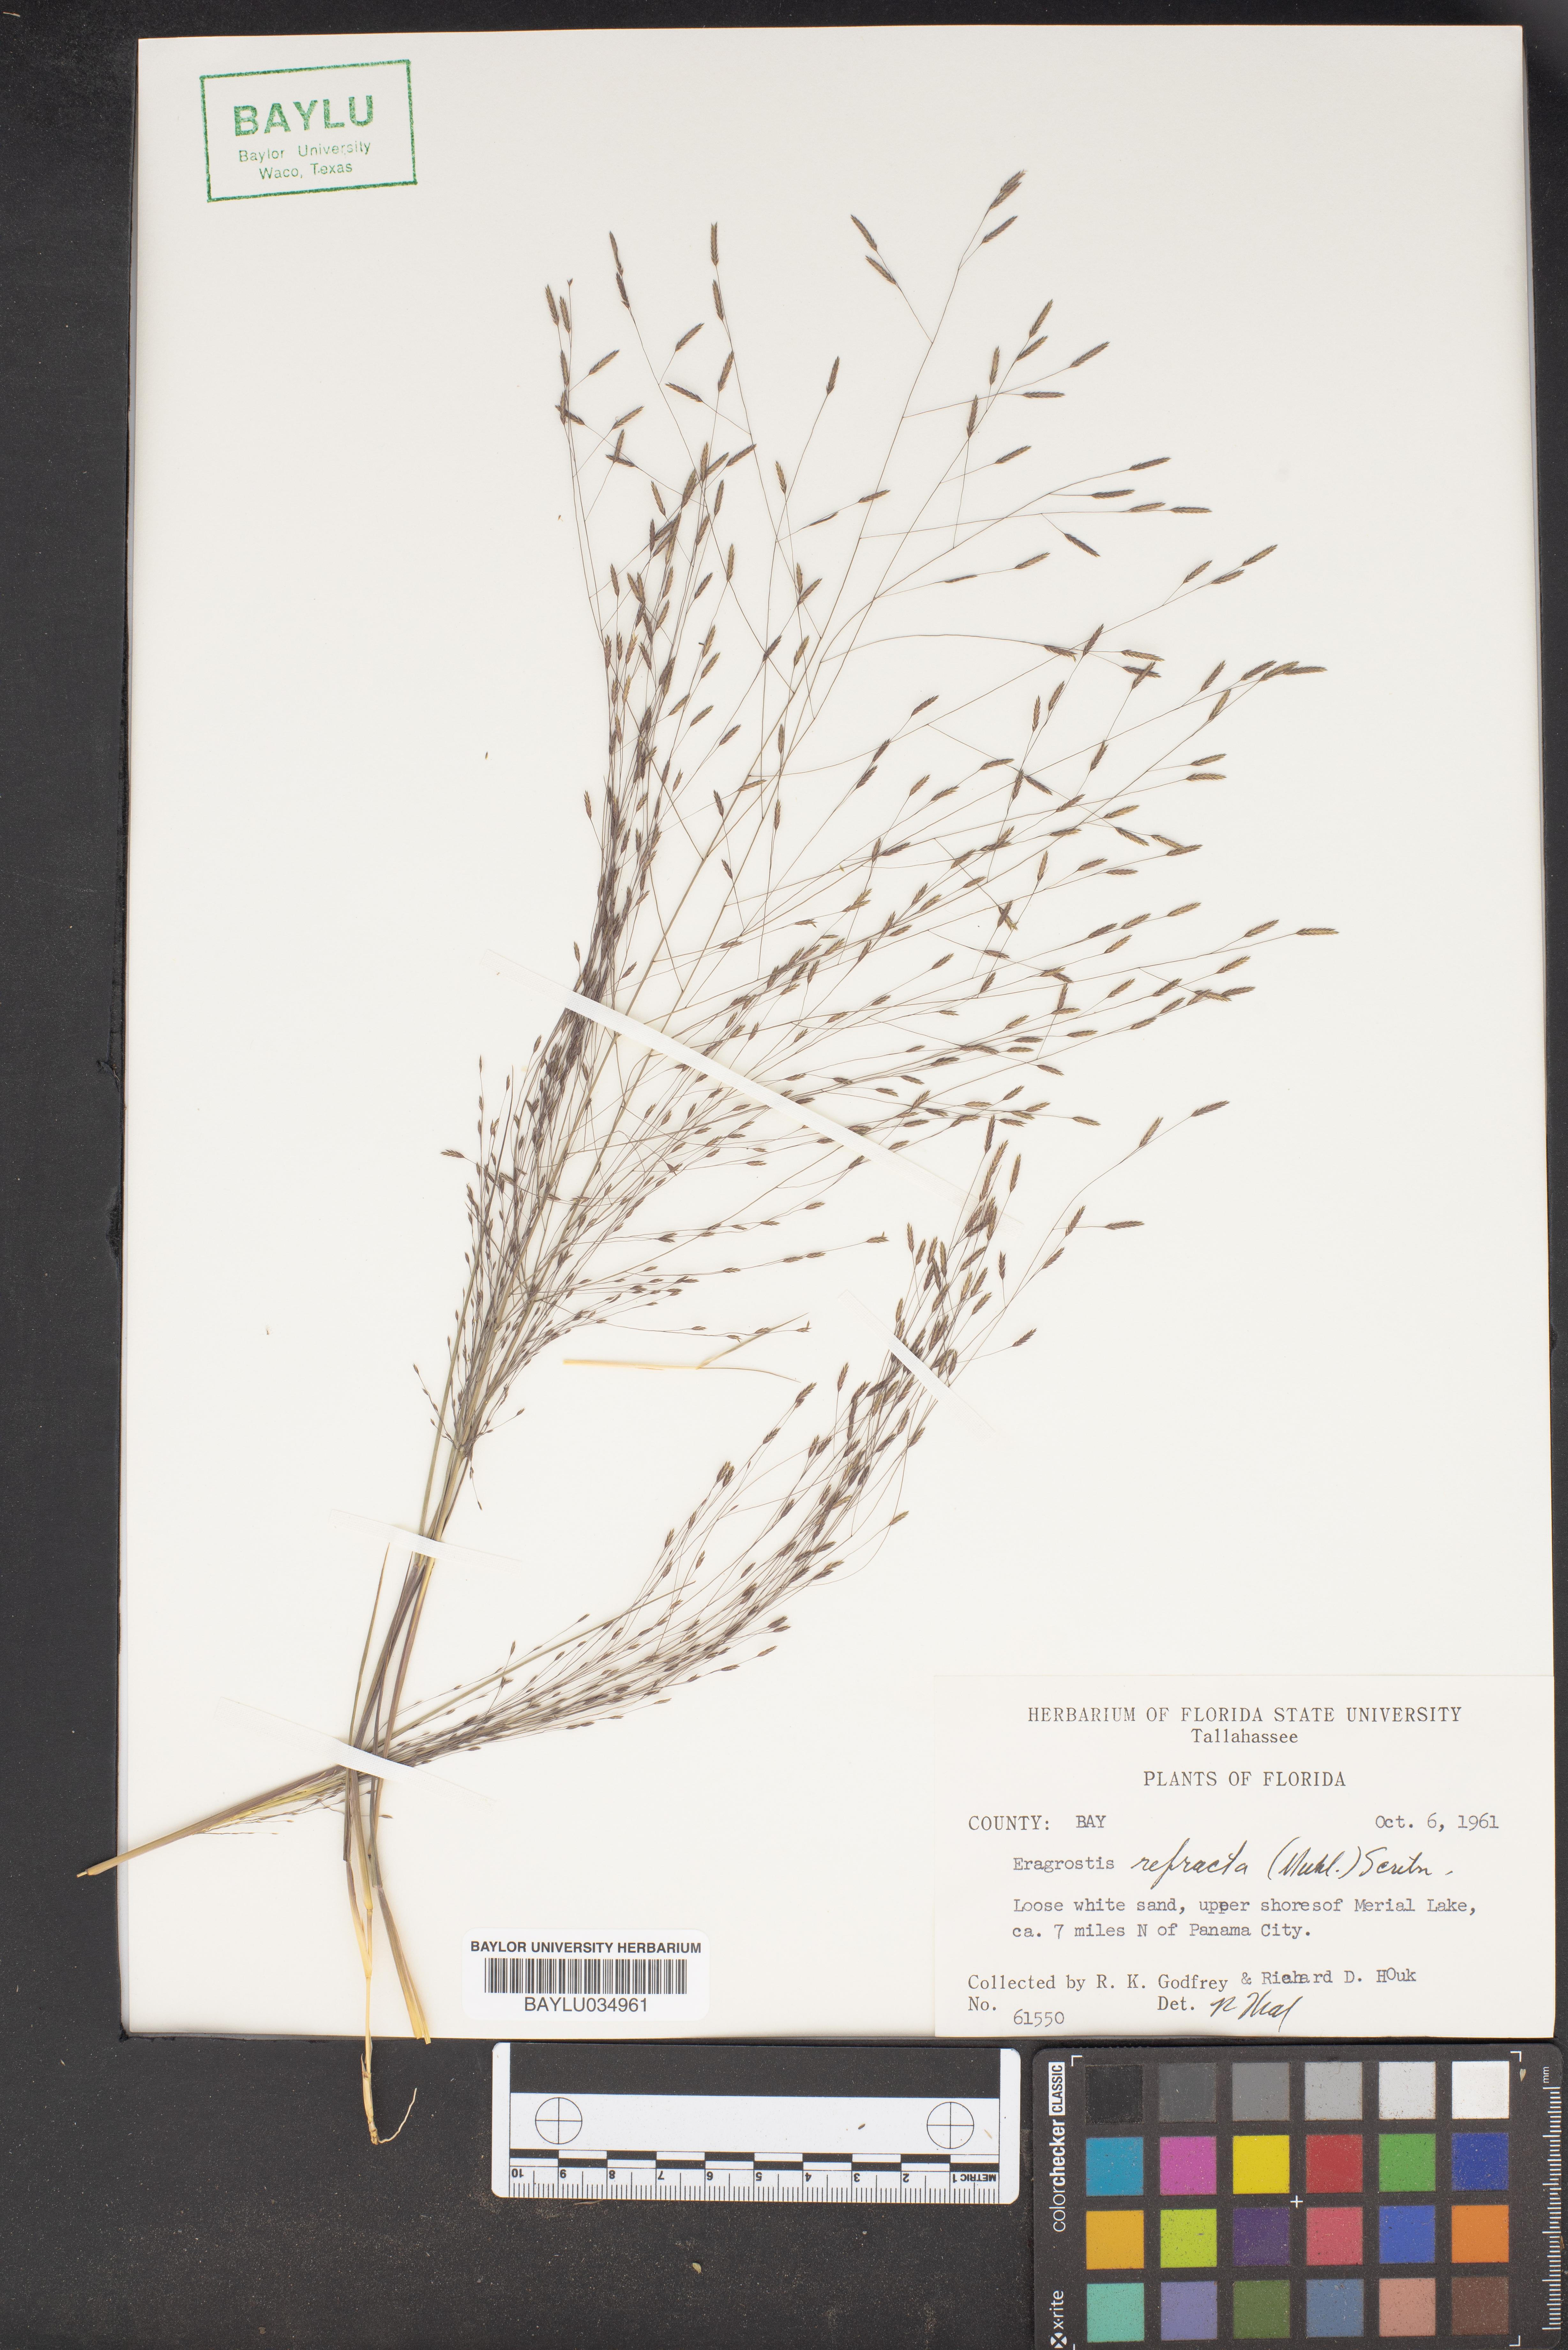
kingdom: Plantae
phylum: Tracheophyta
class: Liliopsida
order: Poales
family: Poaceae
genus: Eragrostis
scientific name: Eragrostis refracta
